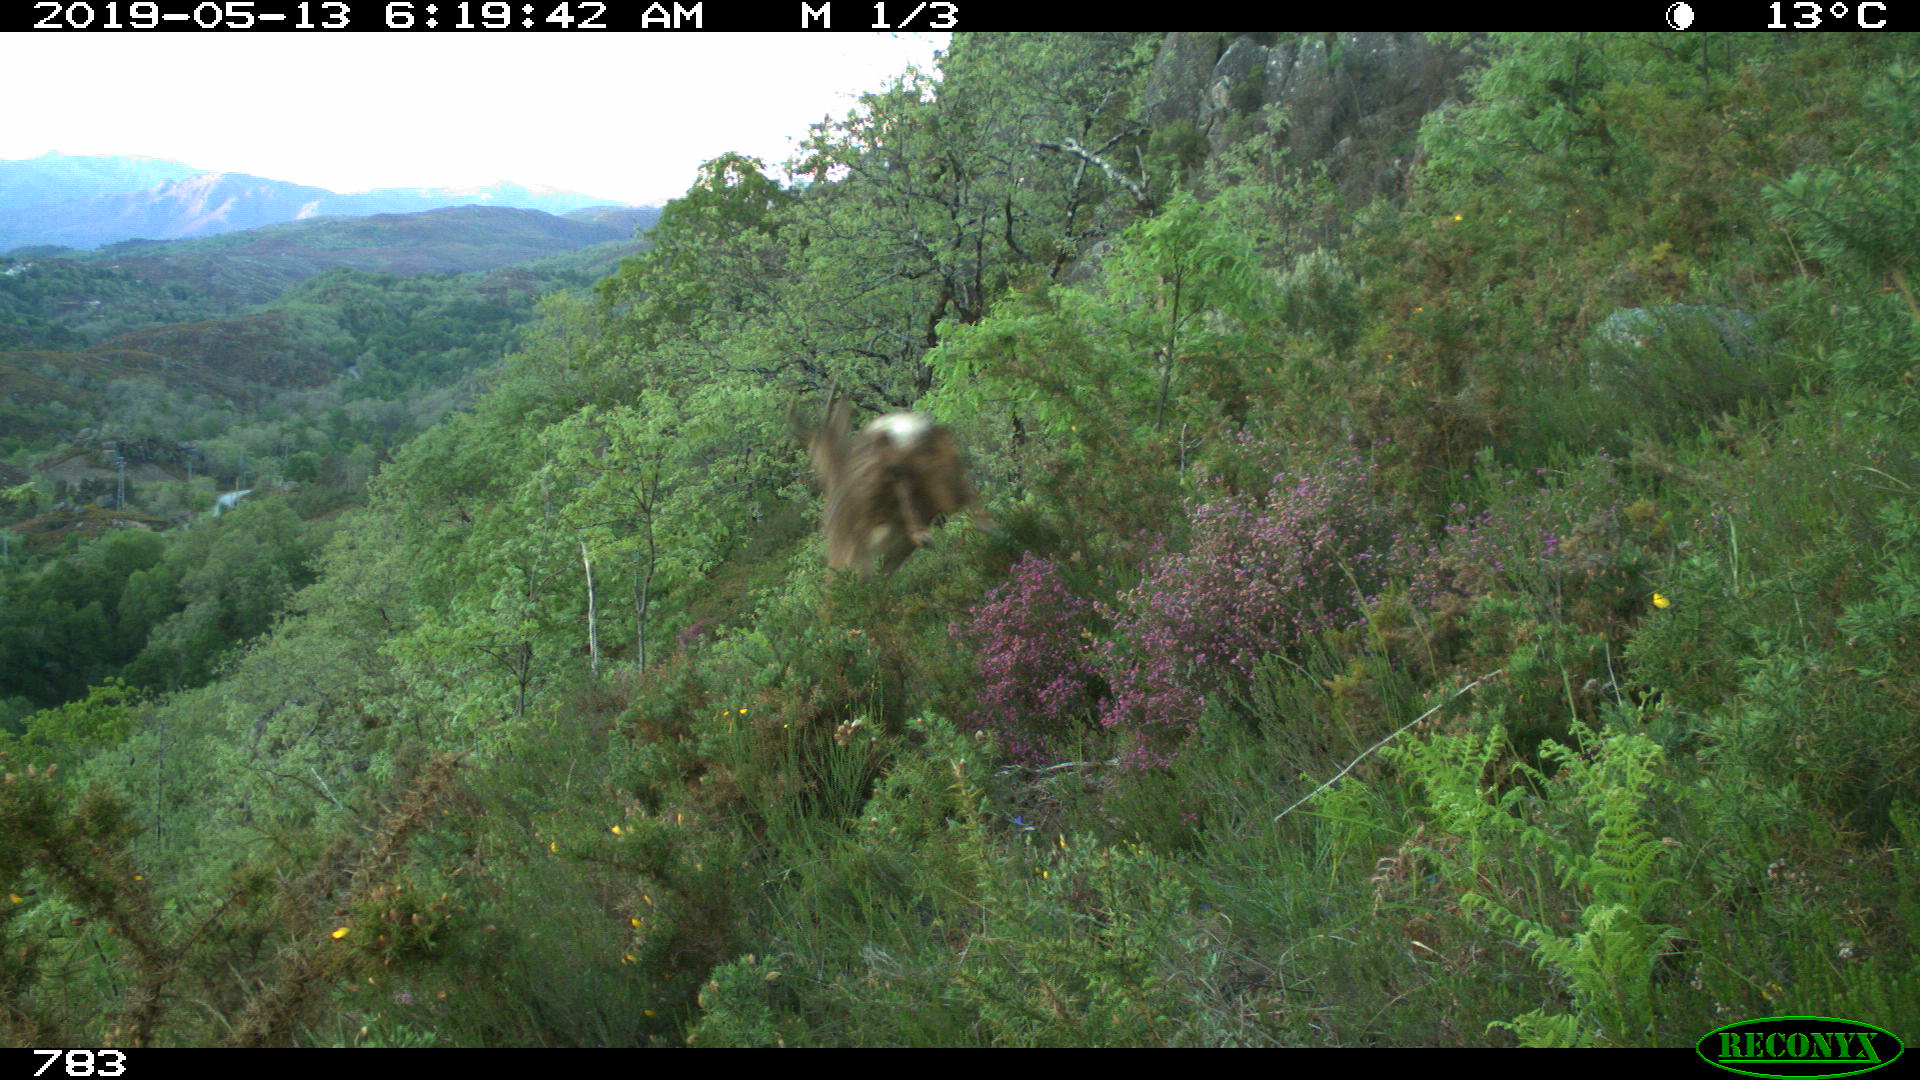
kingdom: Animalia
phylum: Chordata
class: Mammalia
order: Artiodactyla
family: Cervidae
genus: Capreolus
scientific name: Capreolus capreolus
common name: Western roe deer
